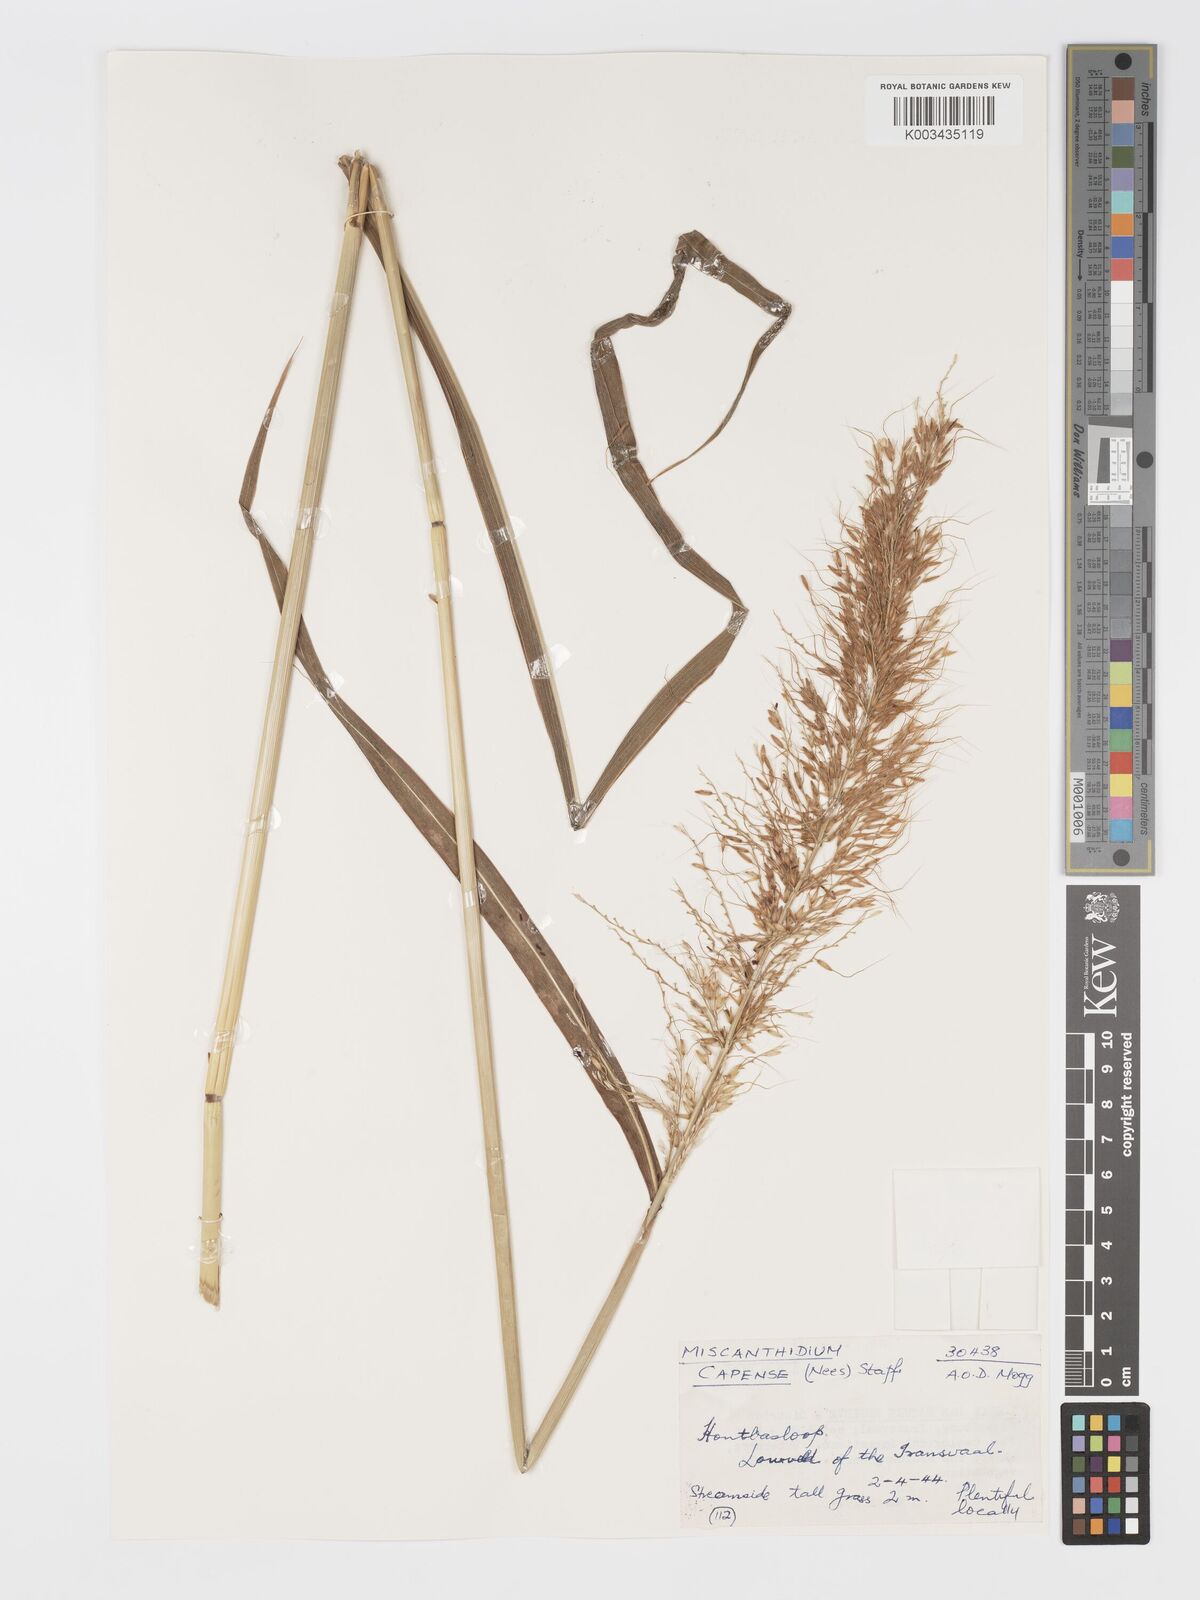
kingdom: Plantae
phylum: Tracheophyta
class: Liliopsida
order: Poales
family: Poaceae
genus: Cleistachne
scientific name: Cleistachne sorghoides
